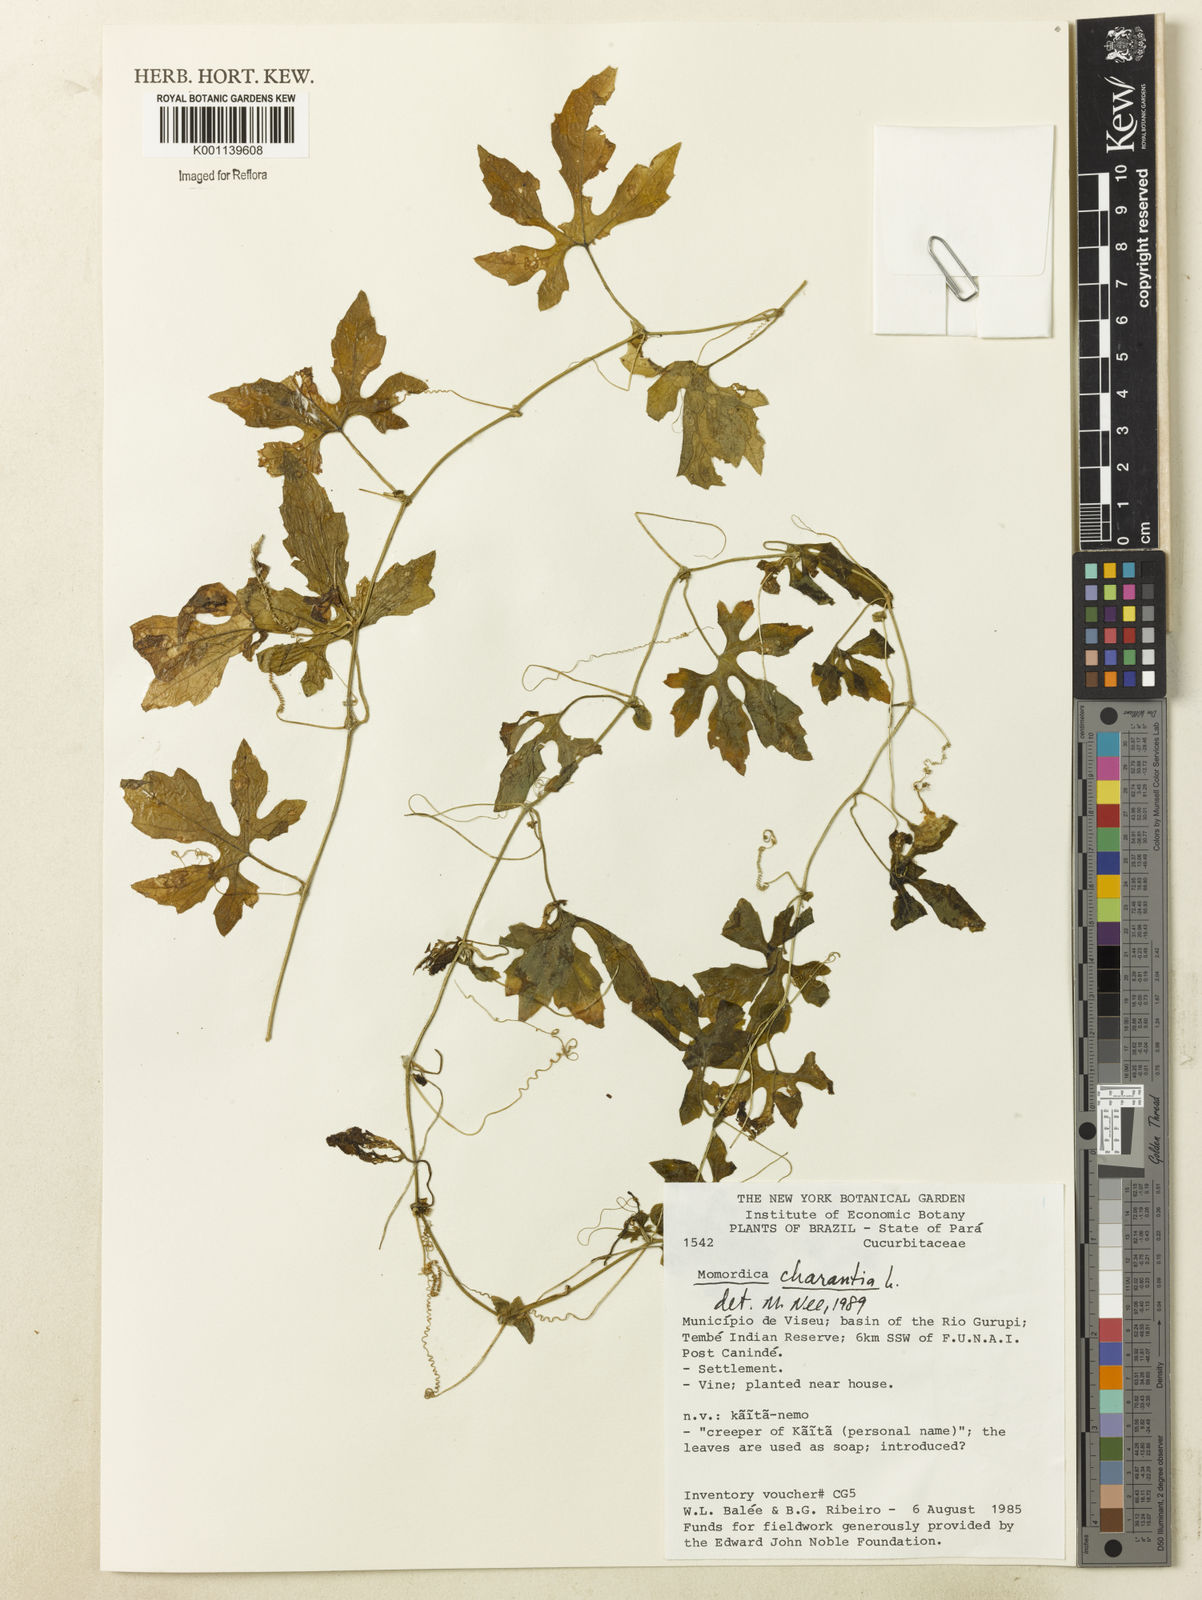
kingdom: Plantae
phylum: Tracheophyta
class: Magnoliopsida
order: Cucurbitales
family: Cucurbitaceae
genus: Momordica
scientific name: Momordica charantia
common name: Balsampear
